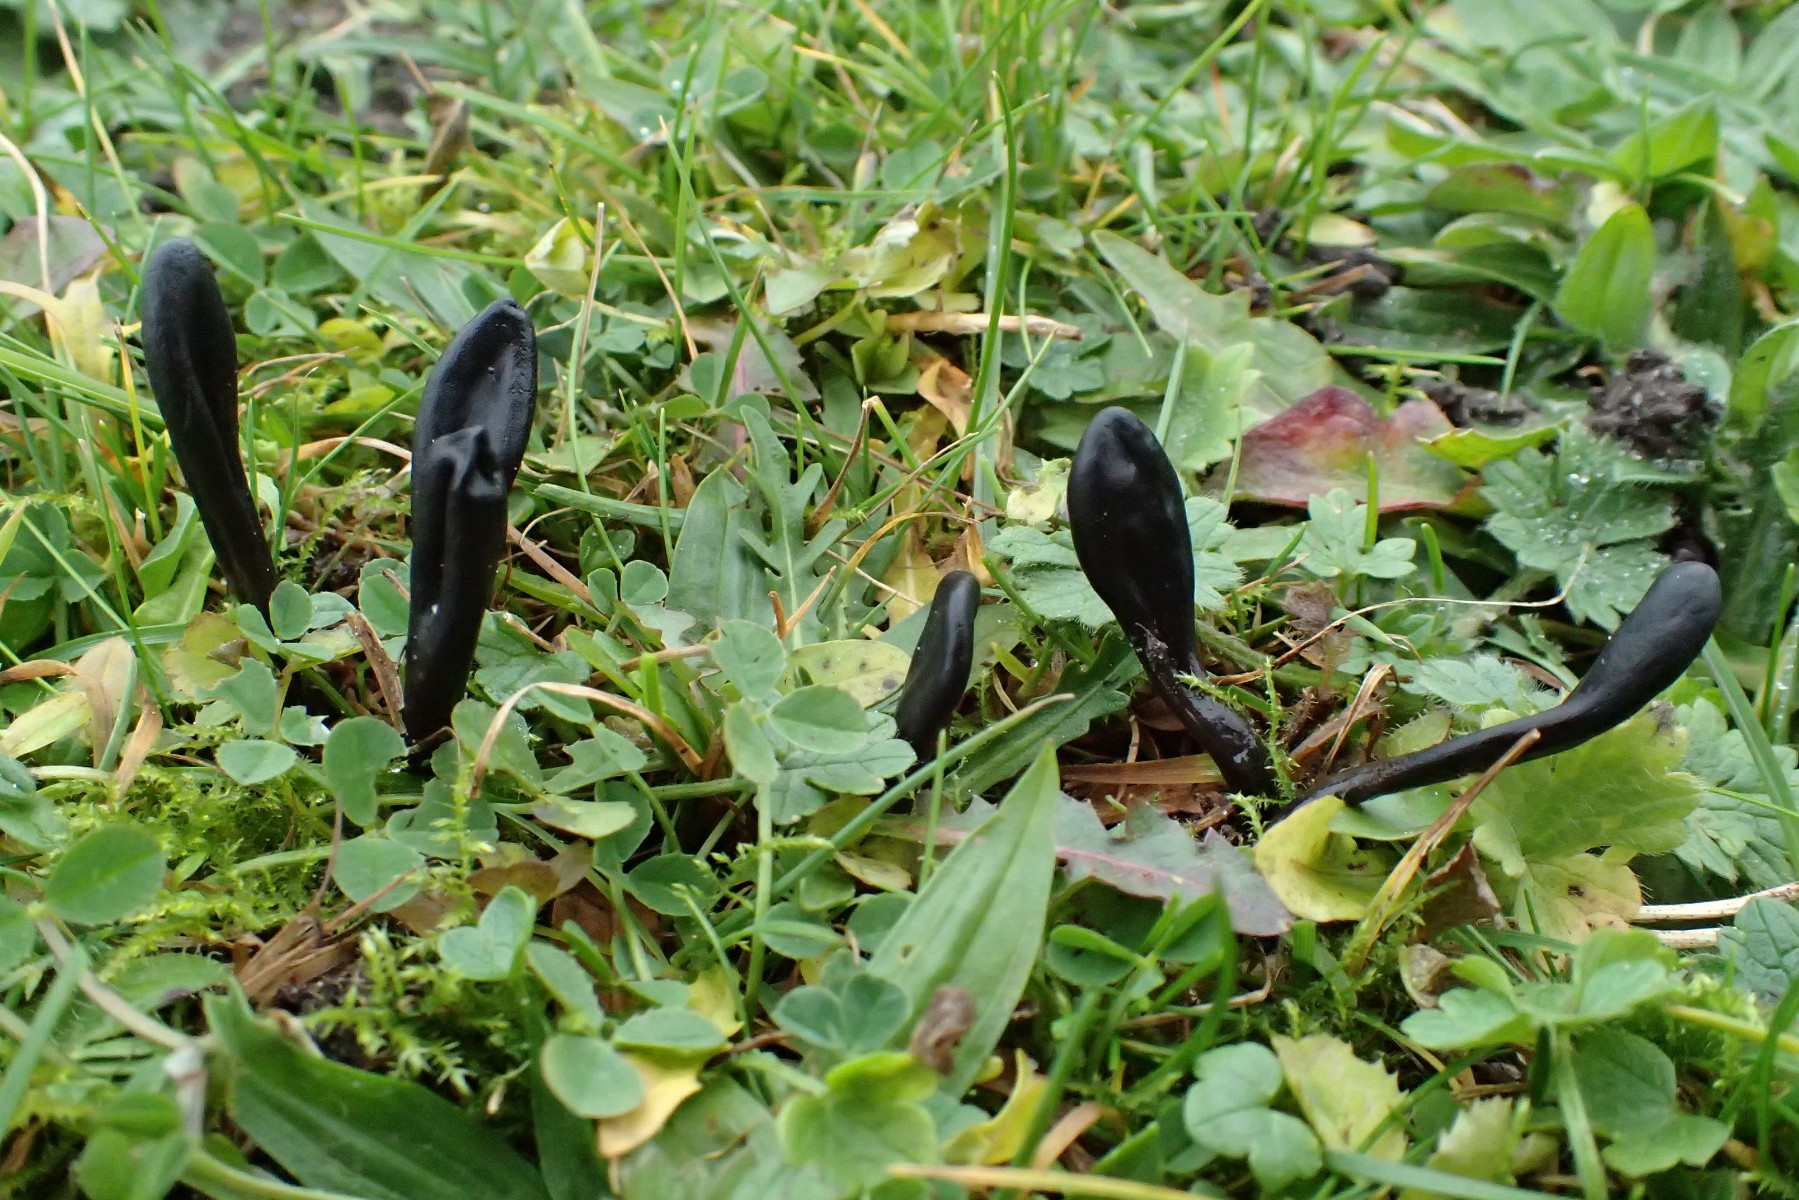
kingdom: Fungi
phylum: Ascomycota
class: Geoglossomycetes
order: Geoglossales
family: Geoglossaceae
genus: Glutinoglossum
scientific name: Glutinoglossum glutinosum
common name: slimet jordtunge
